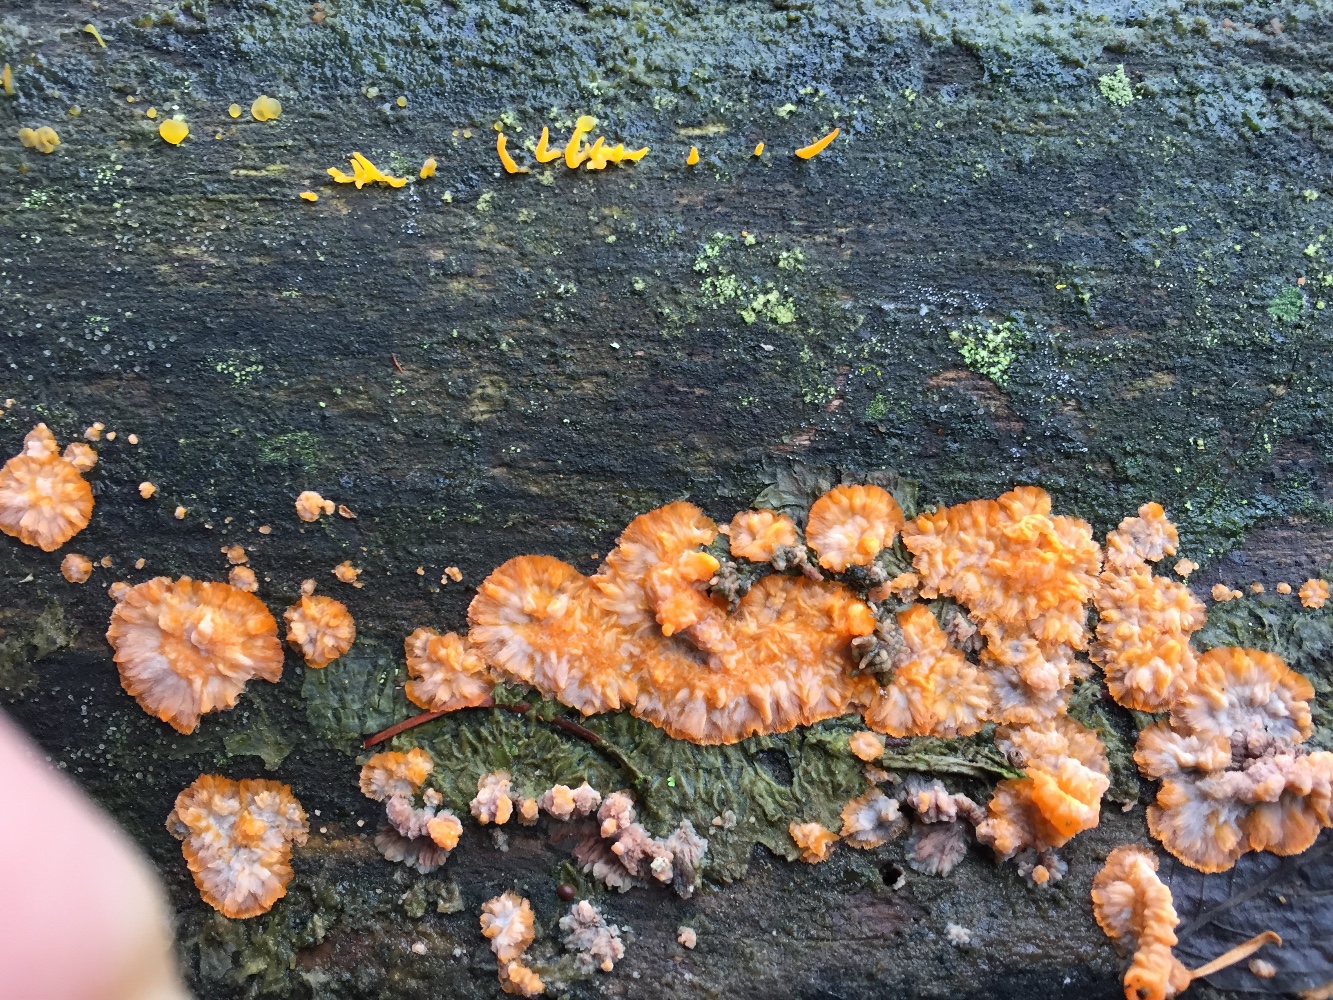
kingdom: Fungi
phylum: Basidiomycota
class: Agaricomycetes
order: Polyporales
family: Meruliaceae
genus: Phlebia
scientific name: Phlebia radiata
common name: stråle-åresvamp
